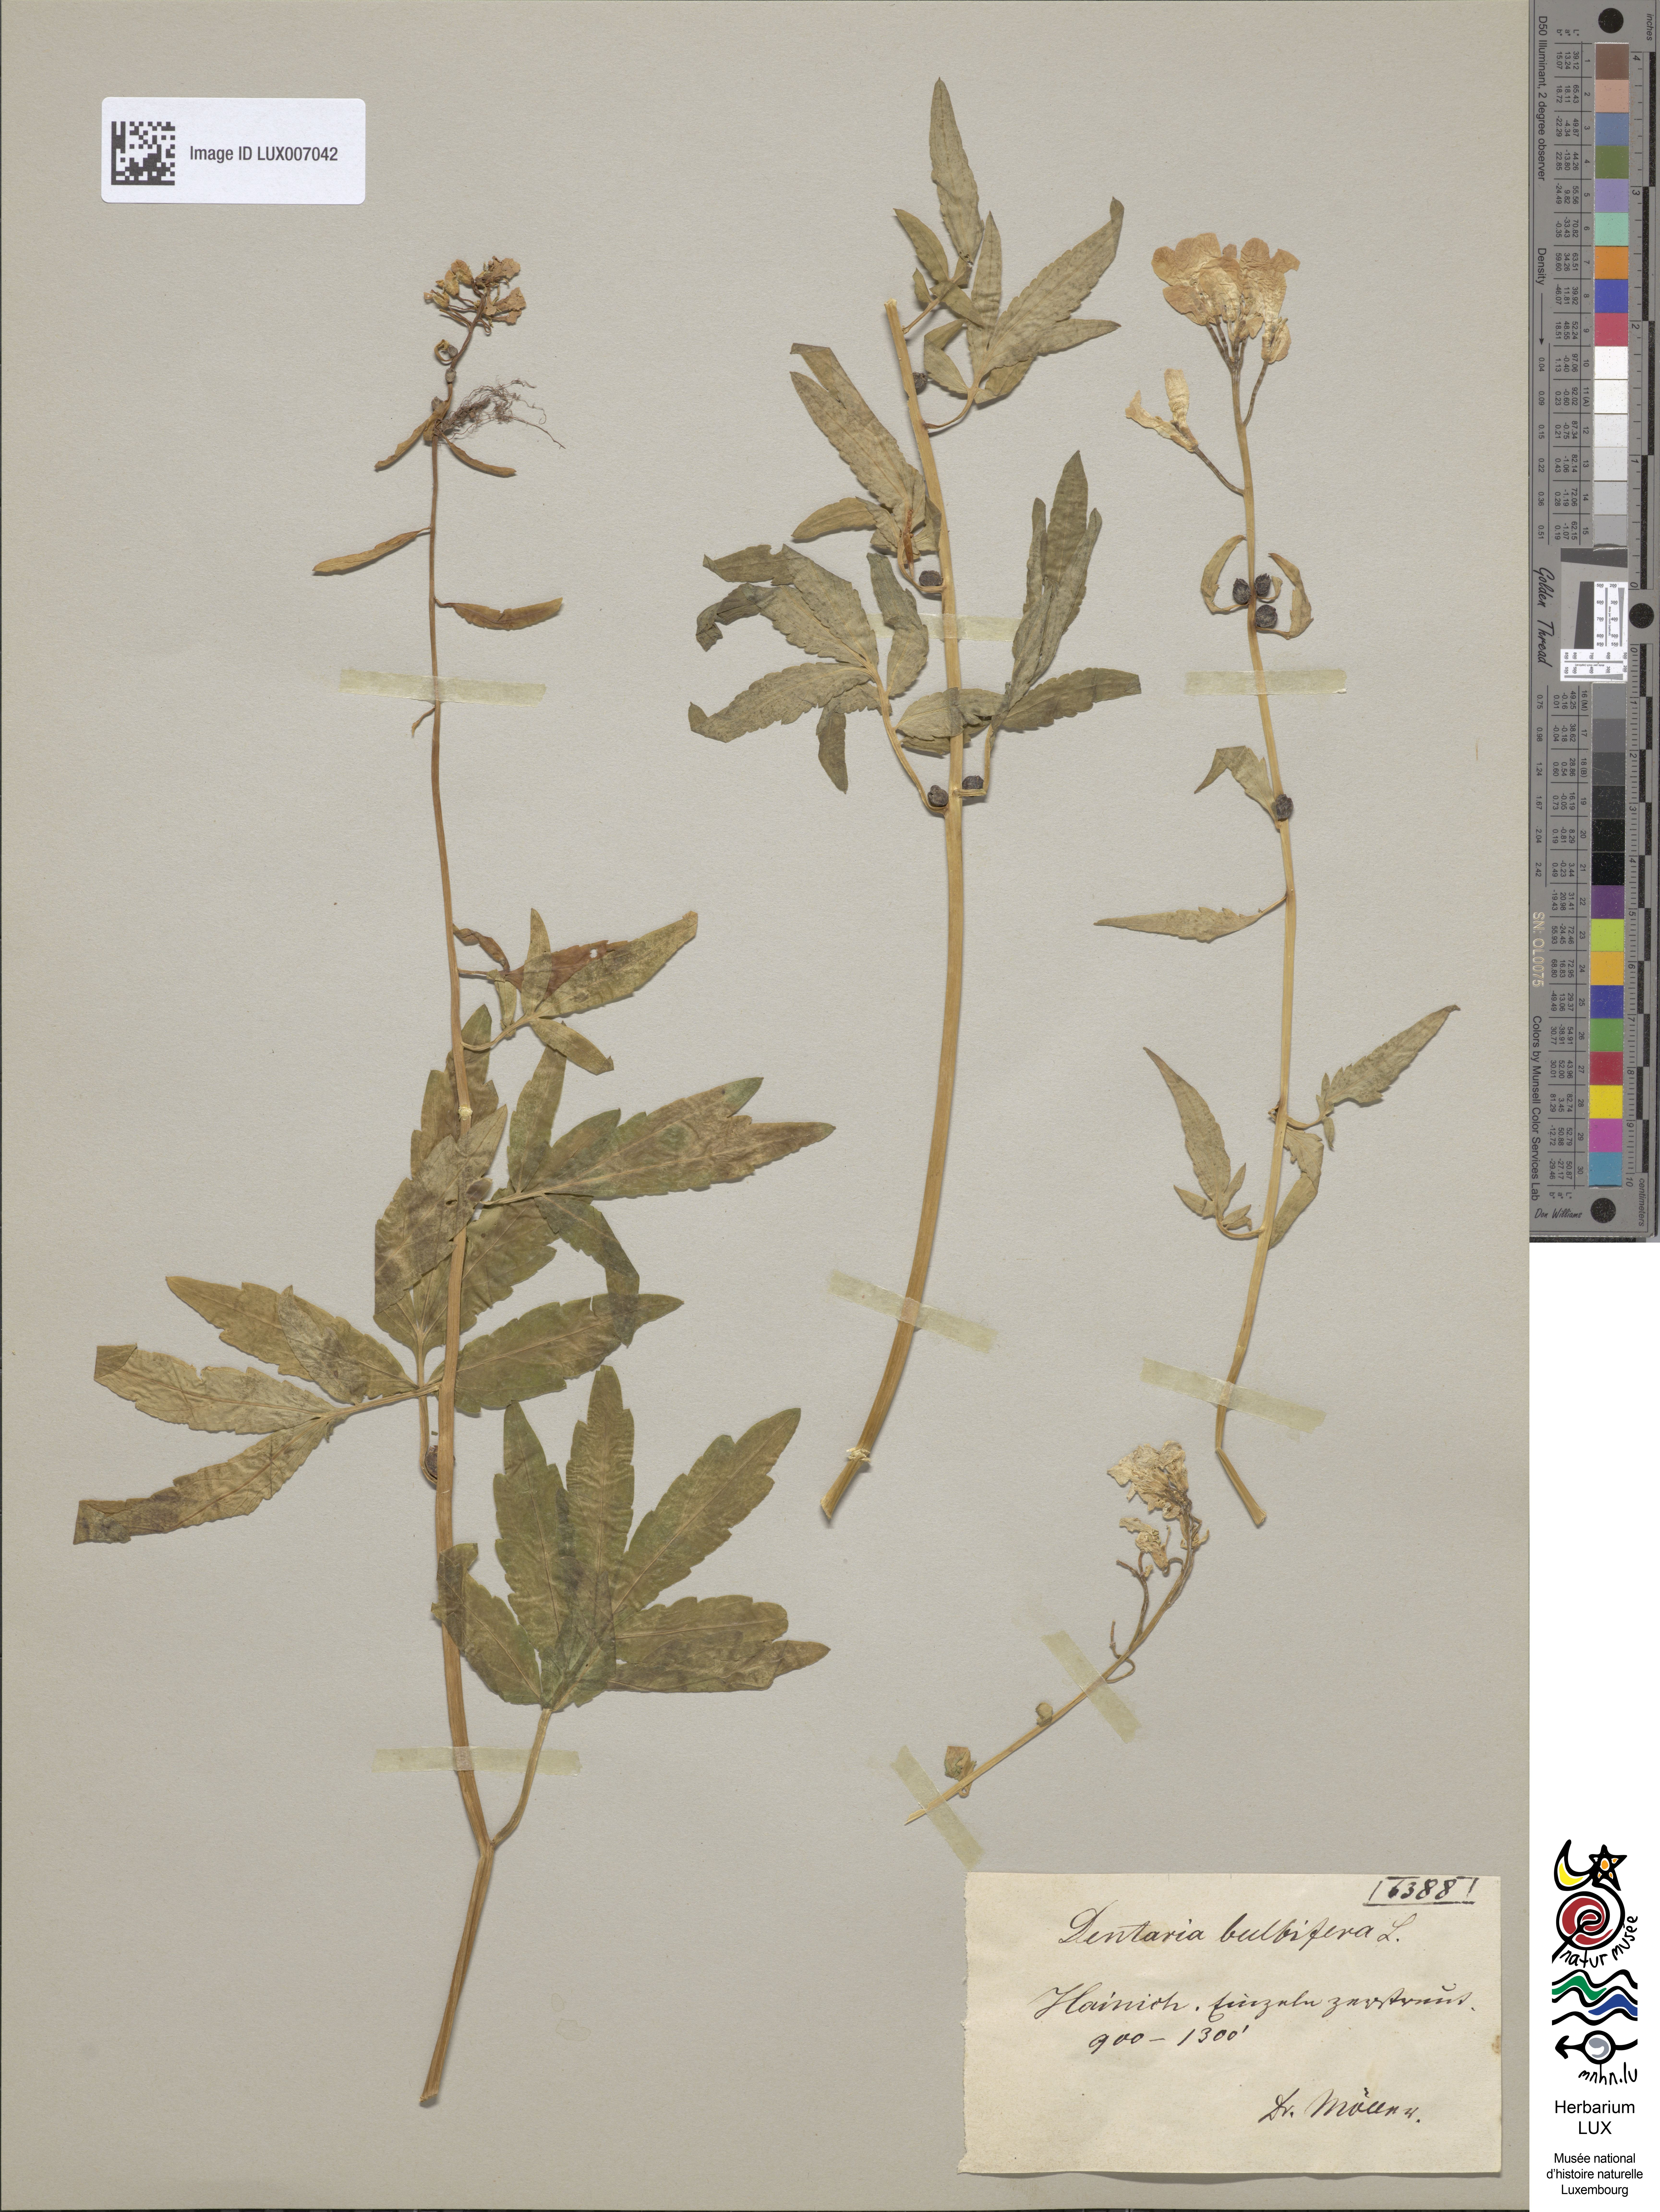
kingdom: Plantae
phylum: Tracheophyta
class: Magnoliopsida
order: Brassicales
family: Brassicaceae
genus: Cardamine
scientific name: Cardamine bulbifera
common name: Coralroot bittercress
